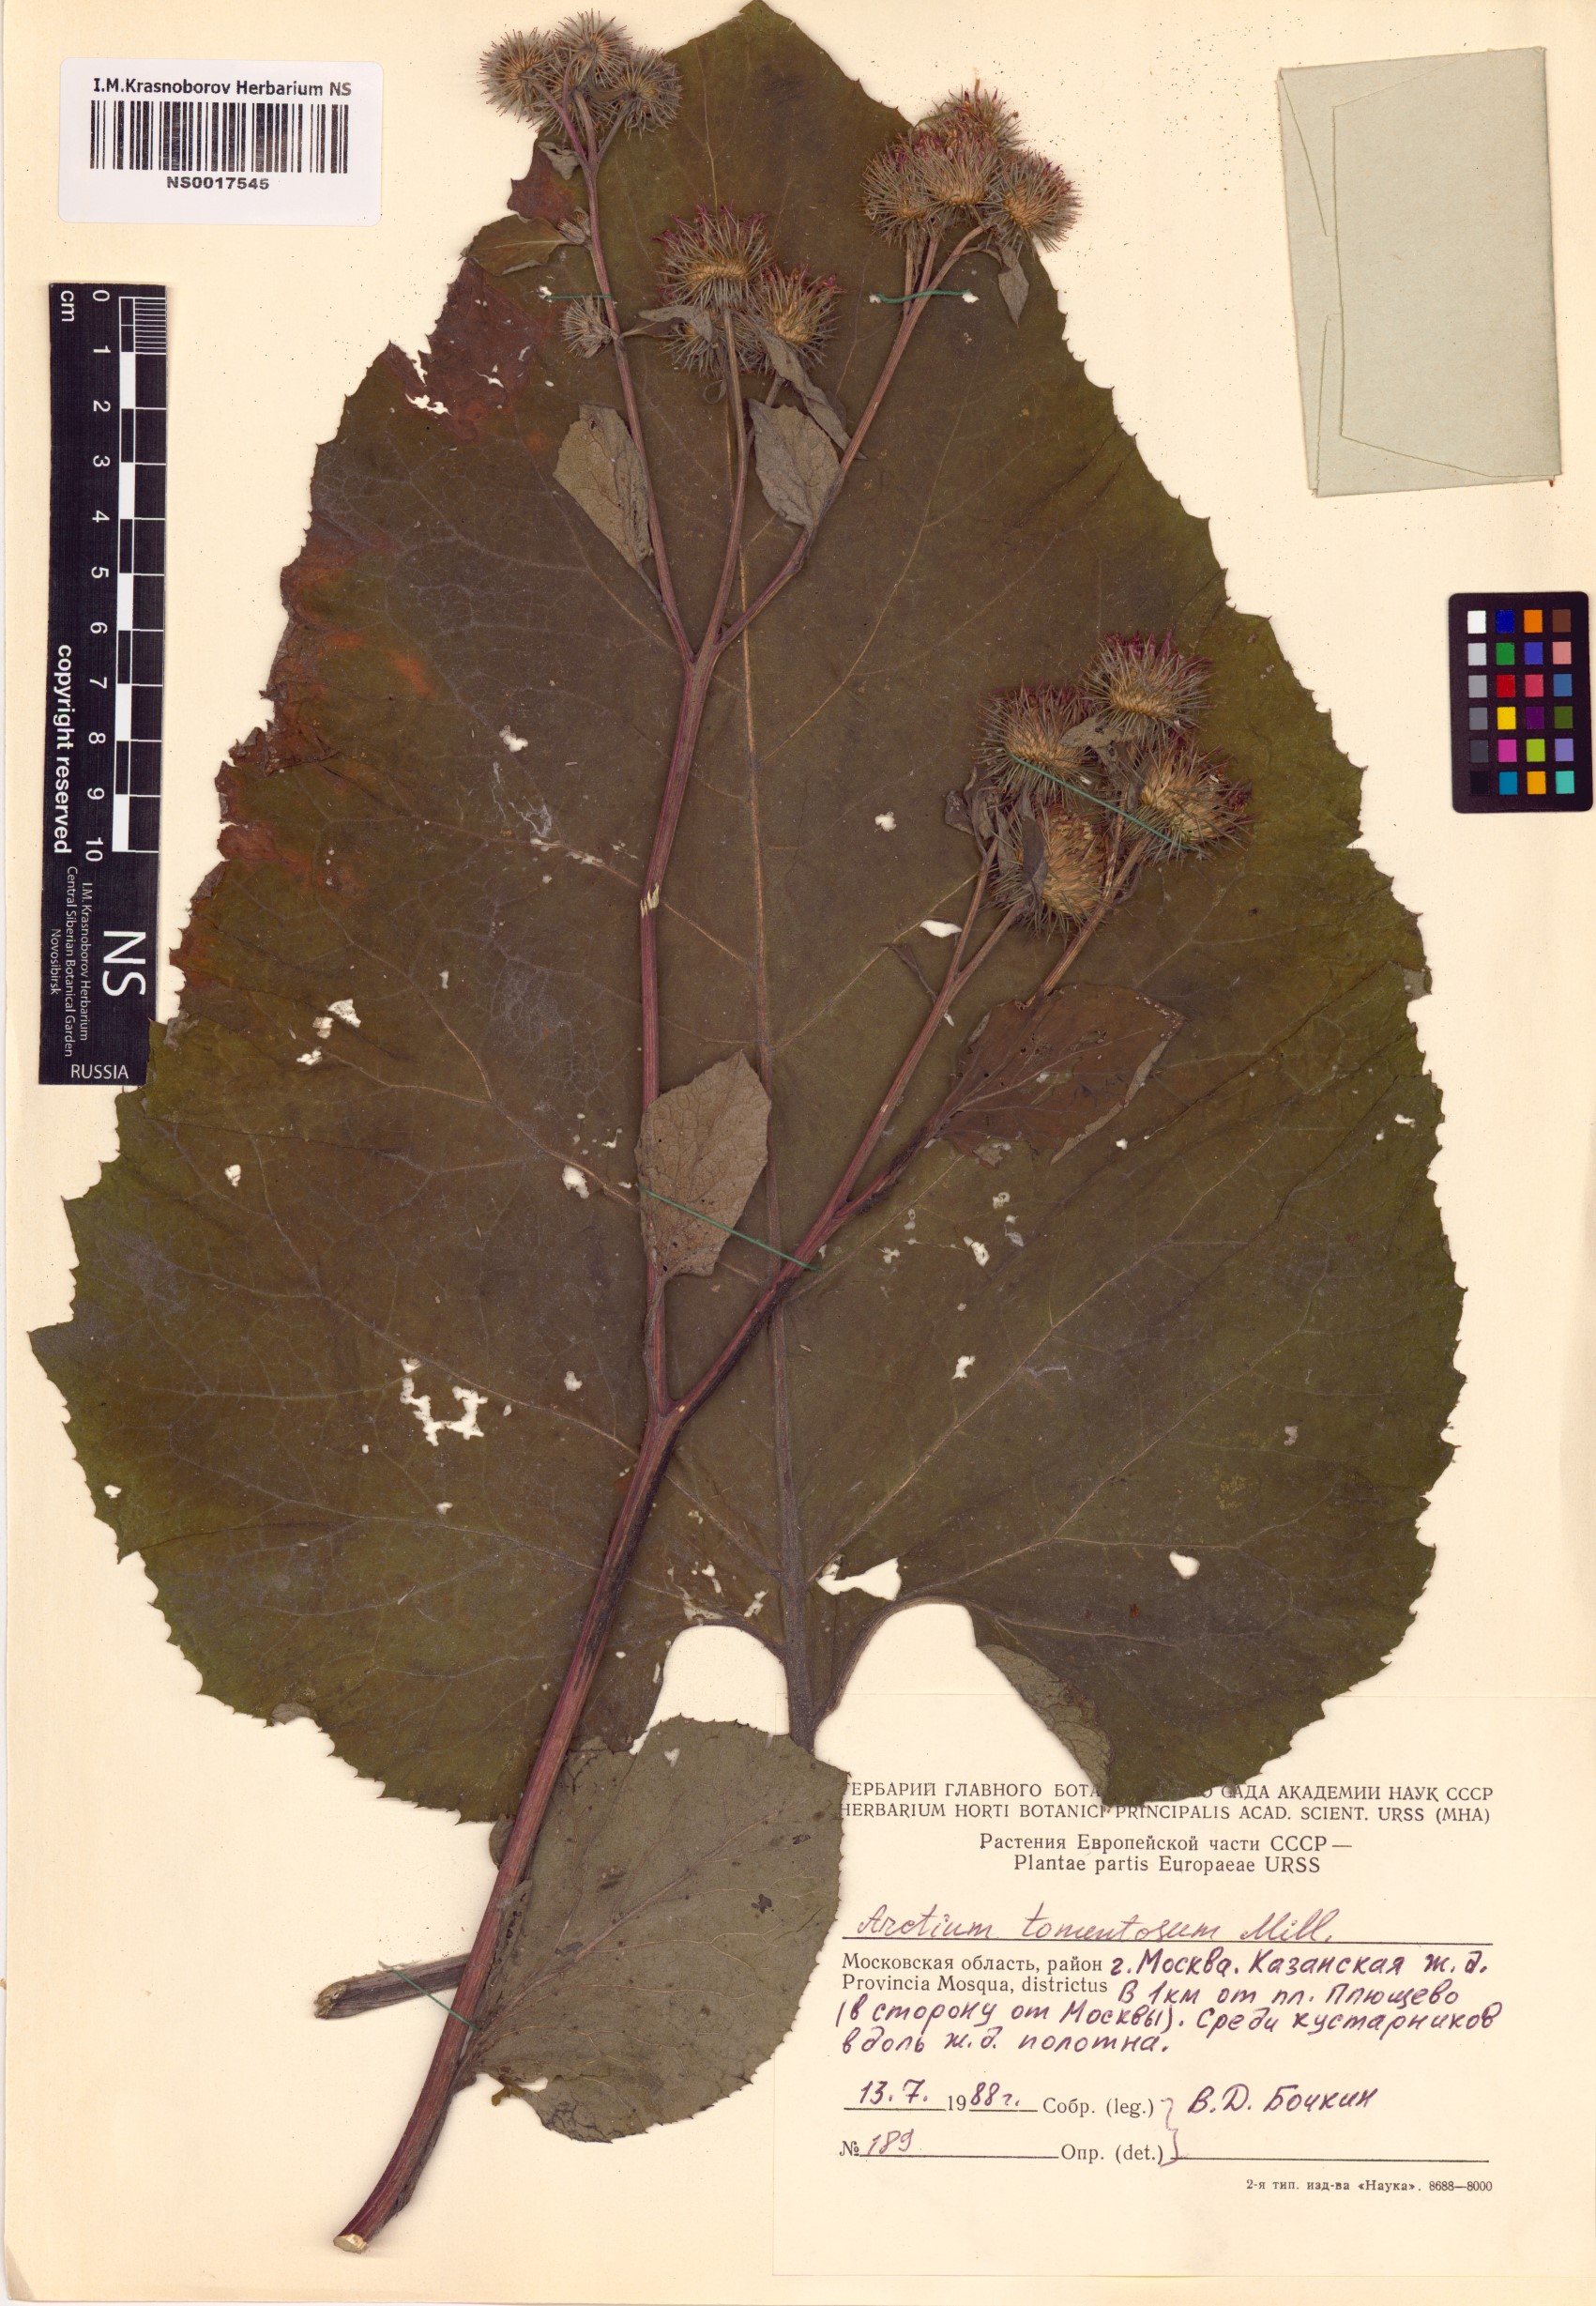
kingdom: Plantae
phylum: Tracheophyta
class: Magnoliopsida
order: Asterales
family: Asteraceae
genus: Arctium
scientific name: Arctium tomentosum
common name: Woolly burdock
